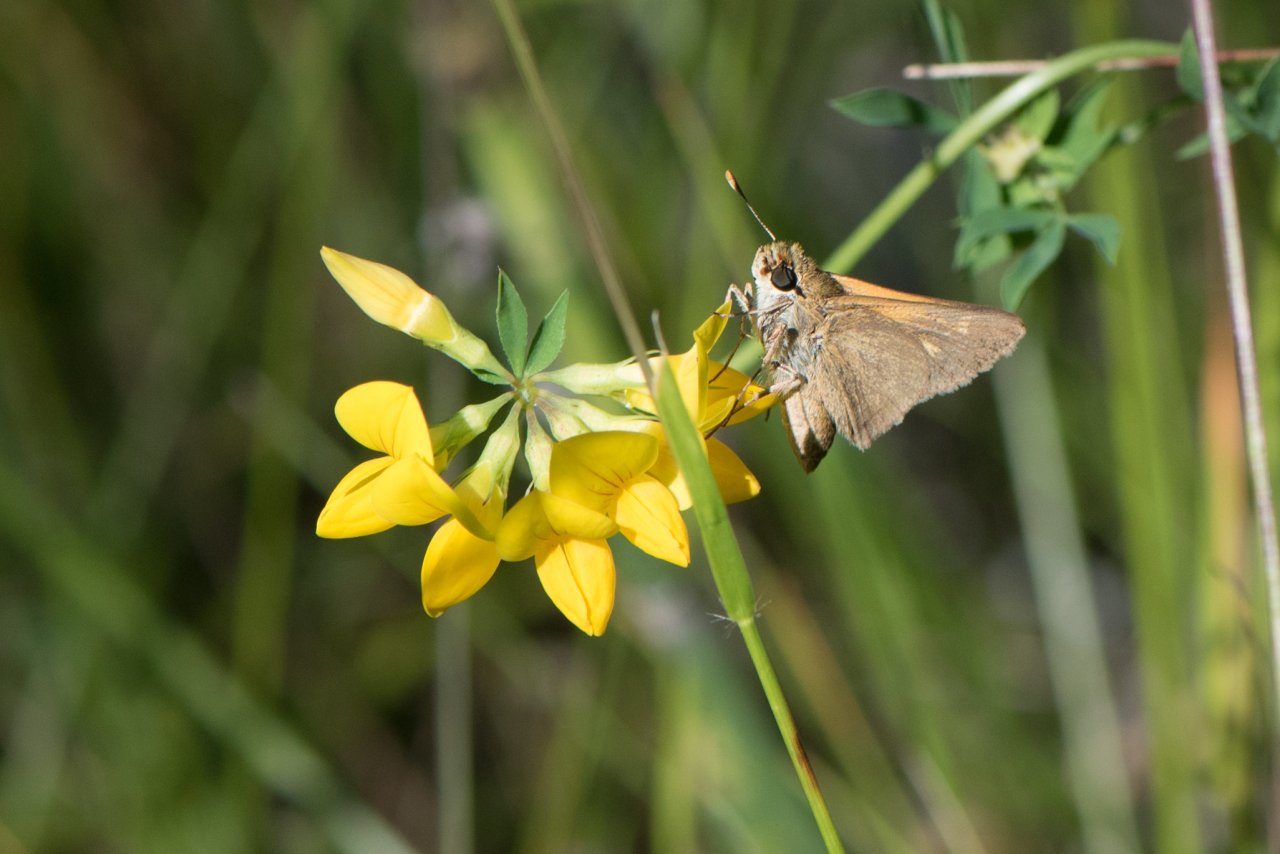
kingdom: Animalia
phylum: Arthropoda
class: Insecta
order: Lepidoptera
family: Hesperiidae
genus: Polites
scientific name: Polites themistocles
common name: Tawny-edged Skipper
